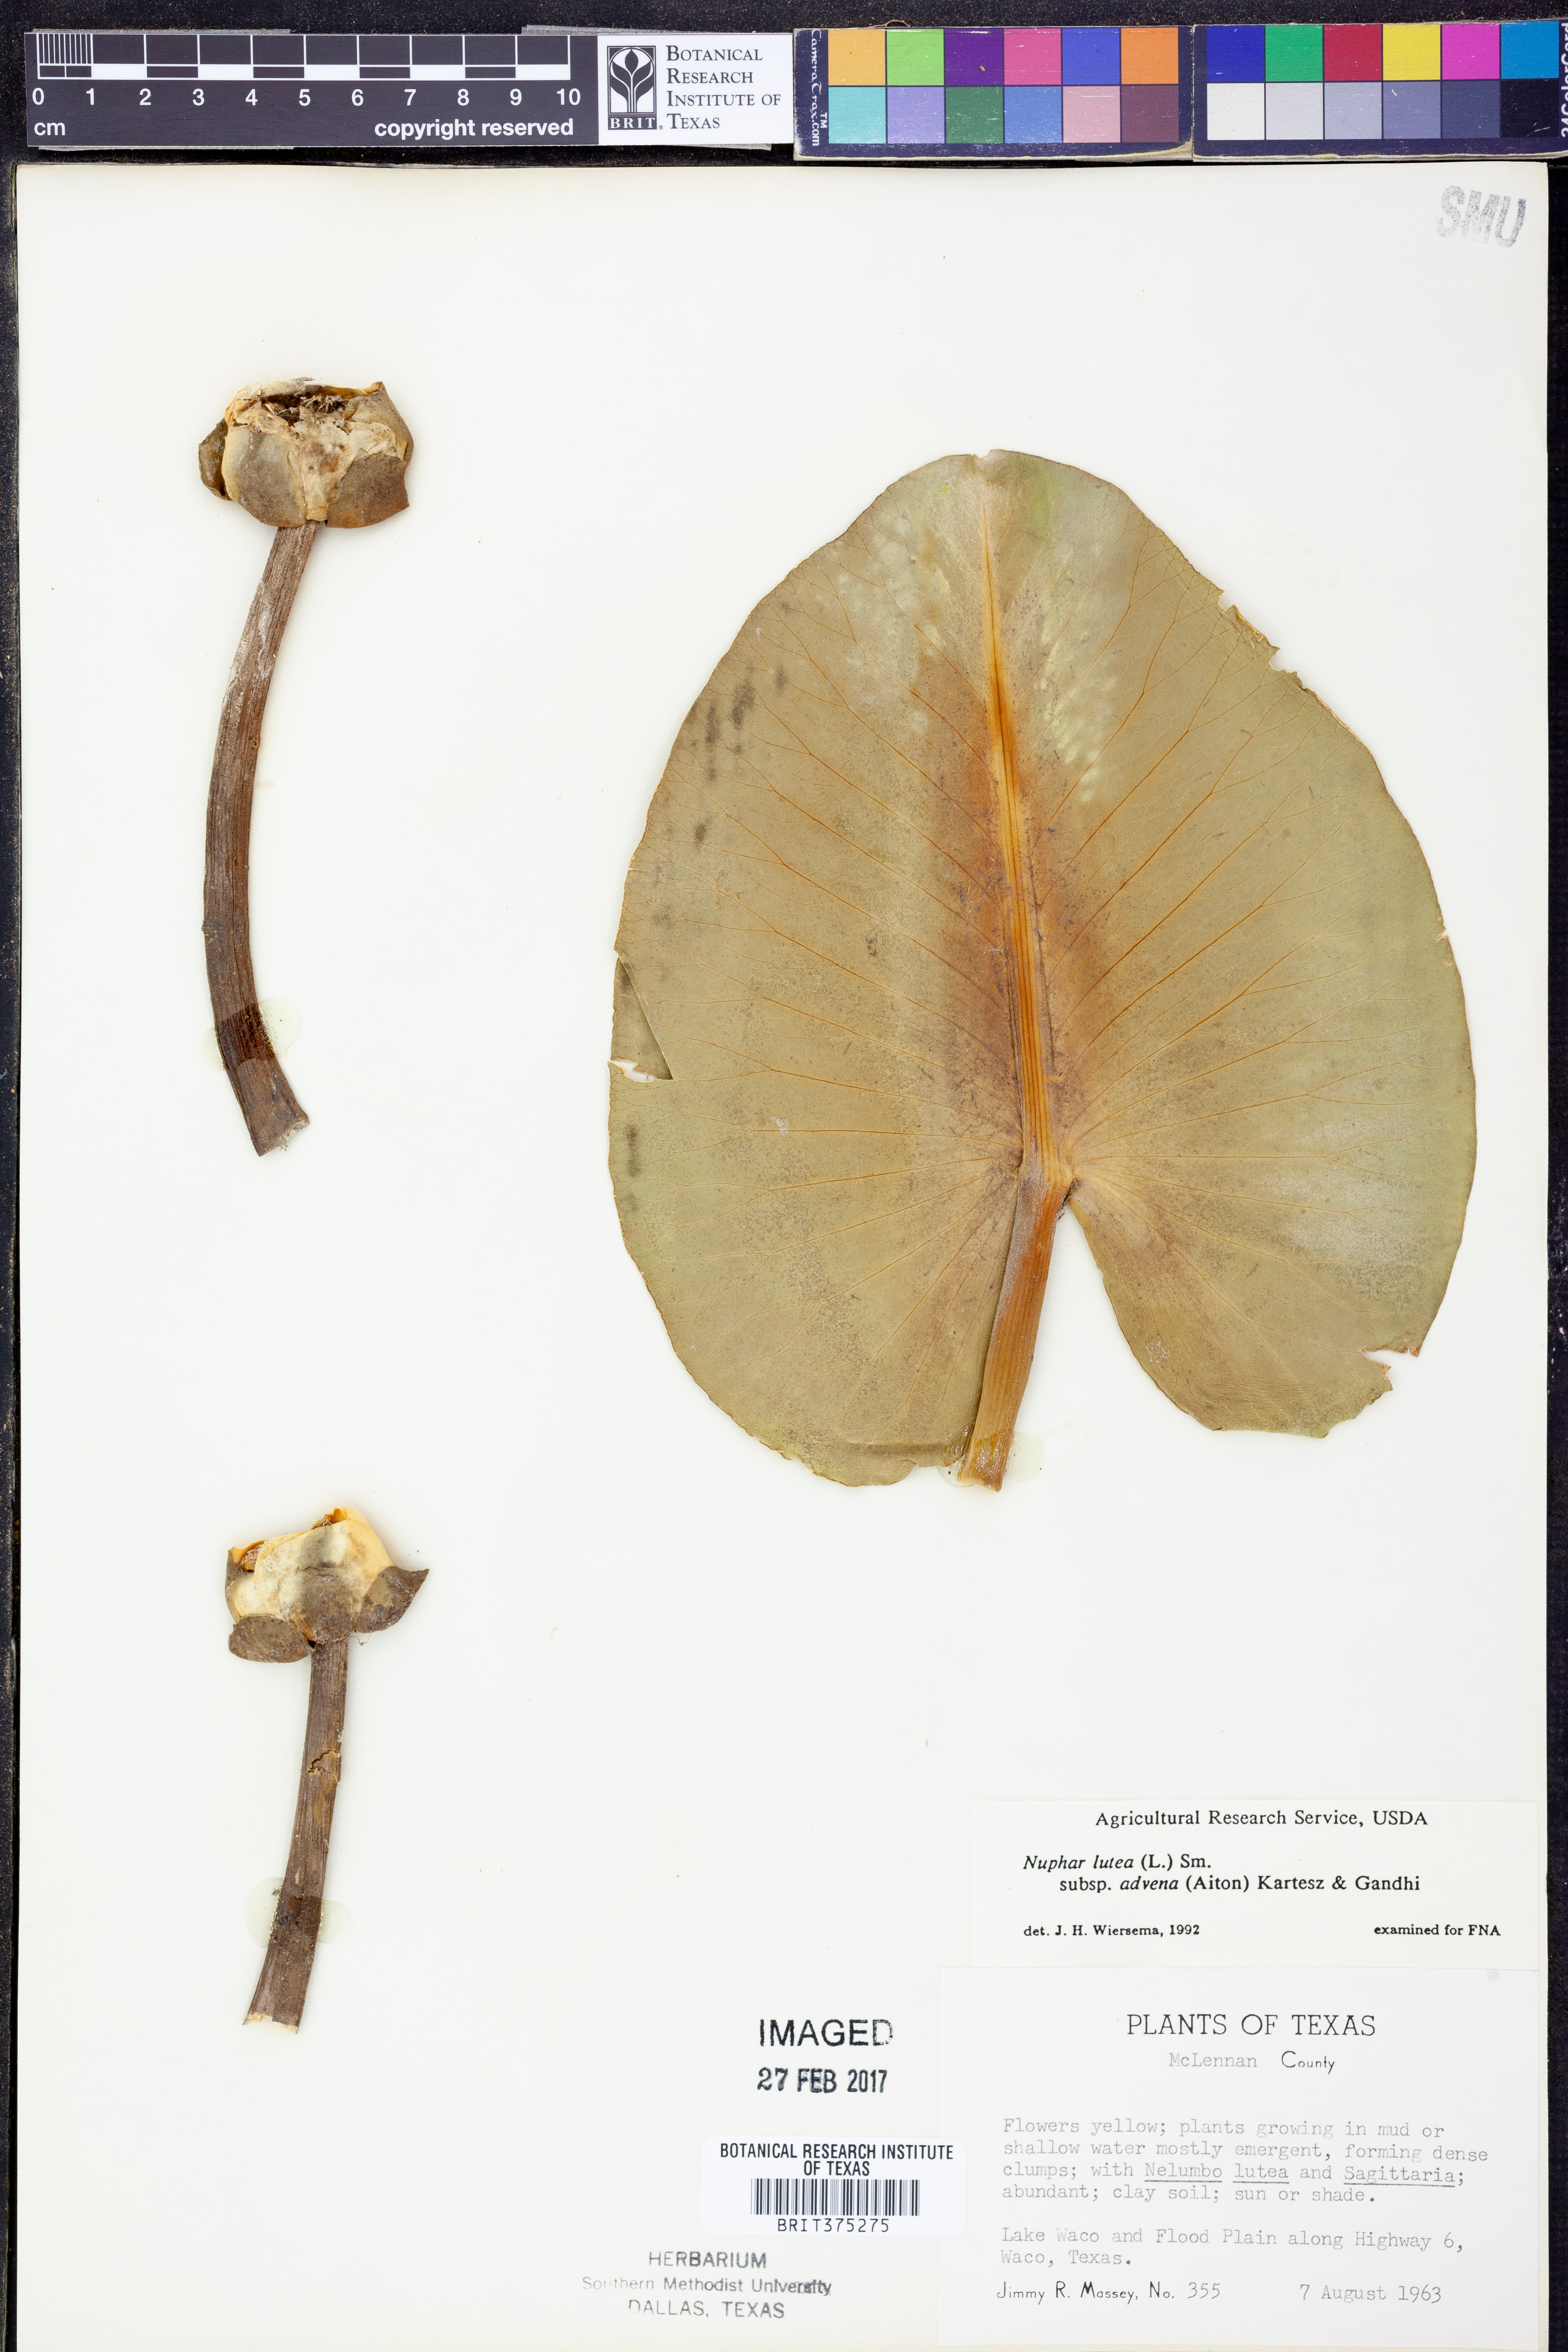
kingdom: Plantae
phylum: Tracheophyta
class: Magnoliopsida
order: Nymphaeales
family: Nymphaeaceae
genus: Nuphar
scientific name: Nuphar advena
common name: Spatter-dock
